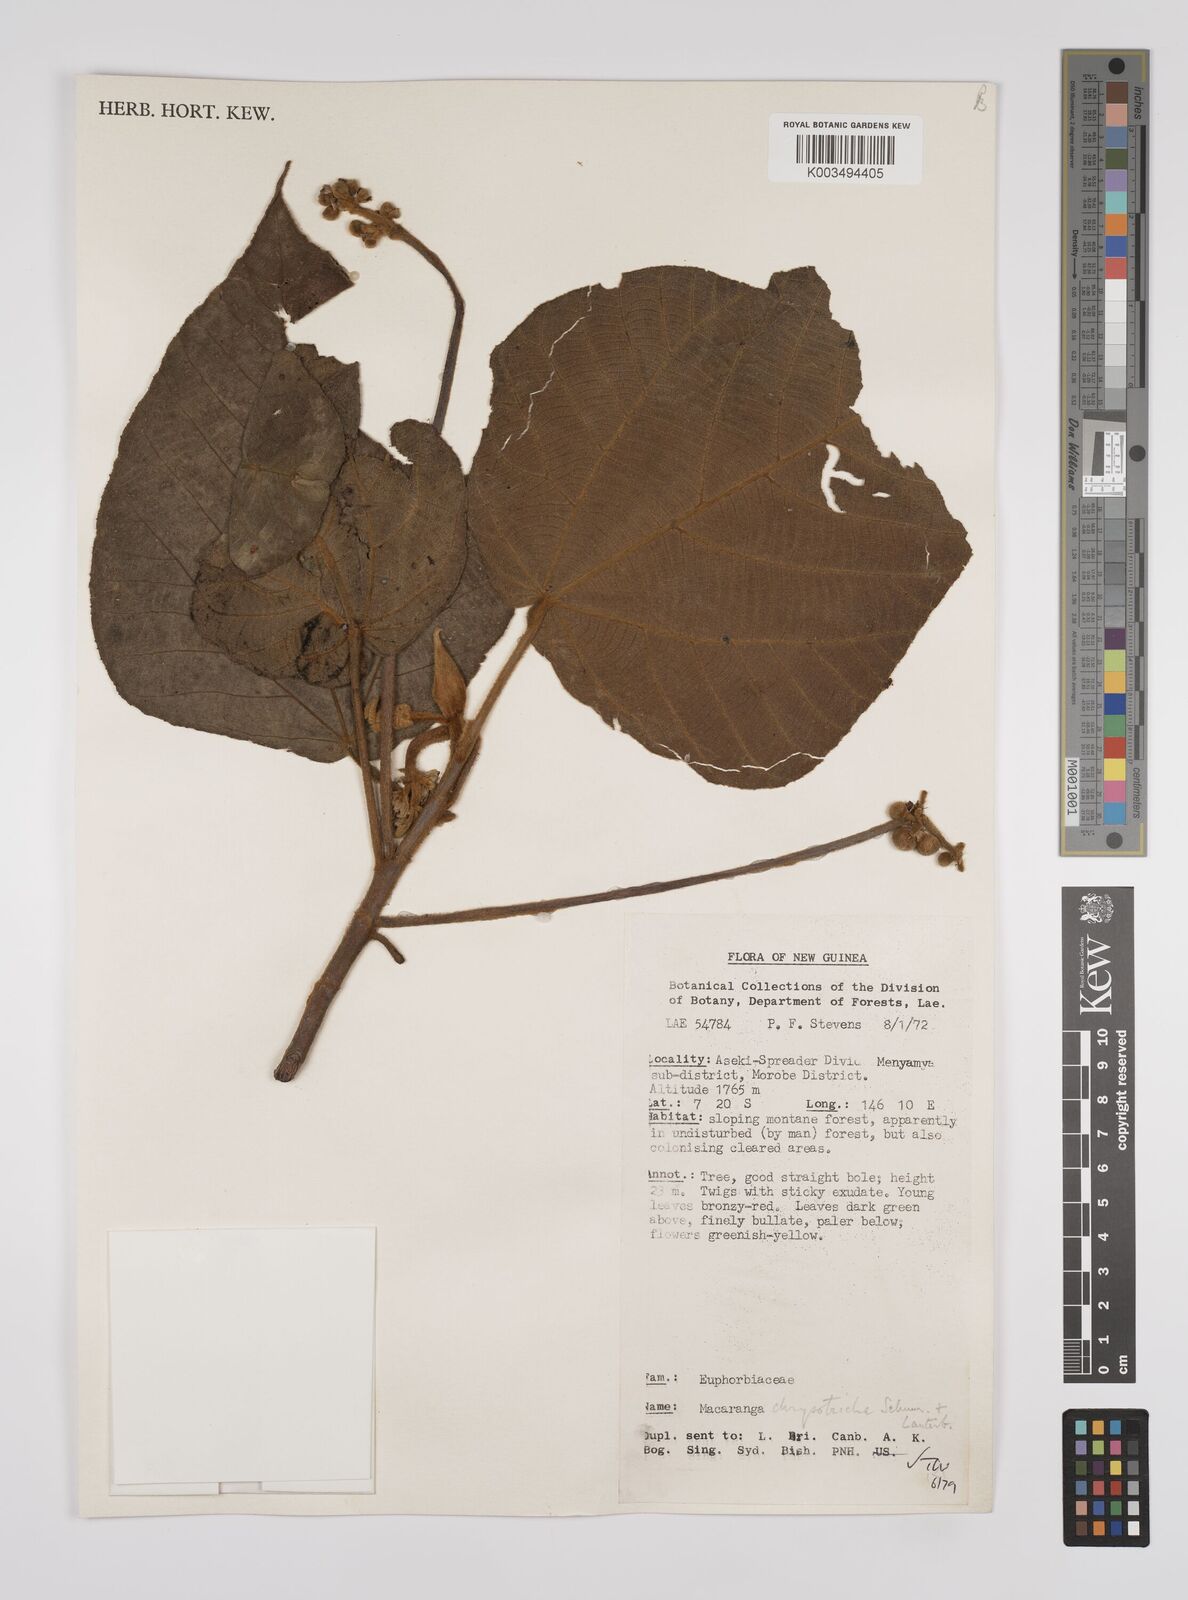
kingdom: Plantae
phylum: Tracheophyta
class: Magnoliopsida
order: Malpighiales
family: Euphorbiaceae
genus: Macaranga
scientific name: Macaranga chrysotricha
